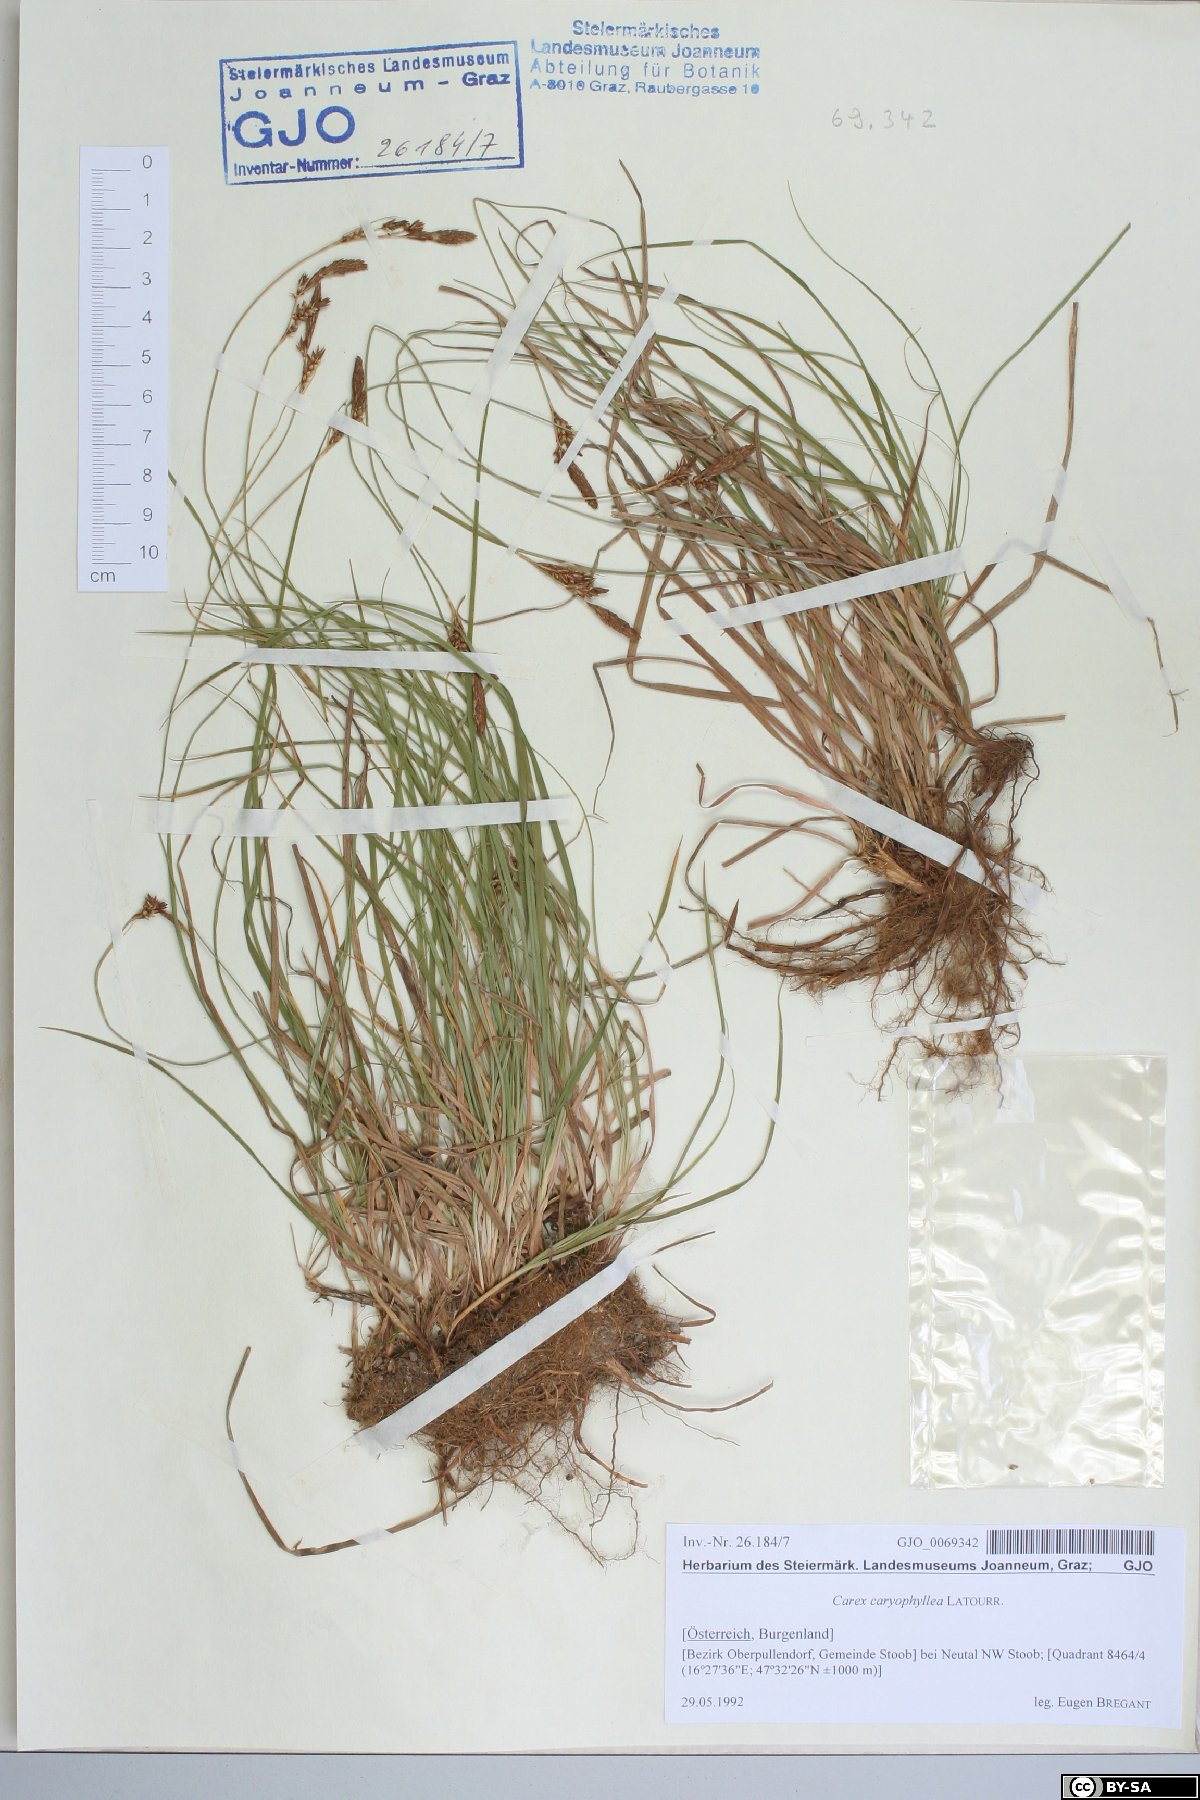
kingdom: Plantae
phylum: Tracheophyta
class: Liliopsida
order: Poales
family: Cyperaceae
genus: Carex
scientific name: Carex caryophyllea
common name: Spring sedge
